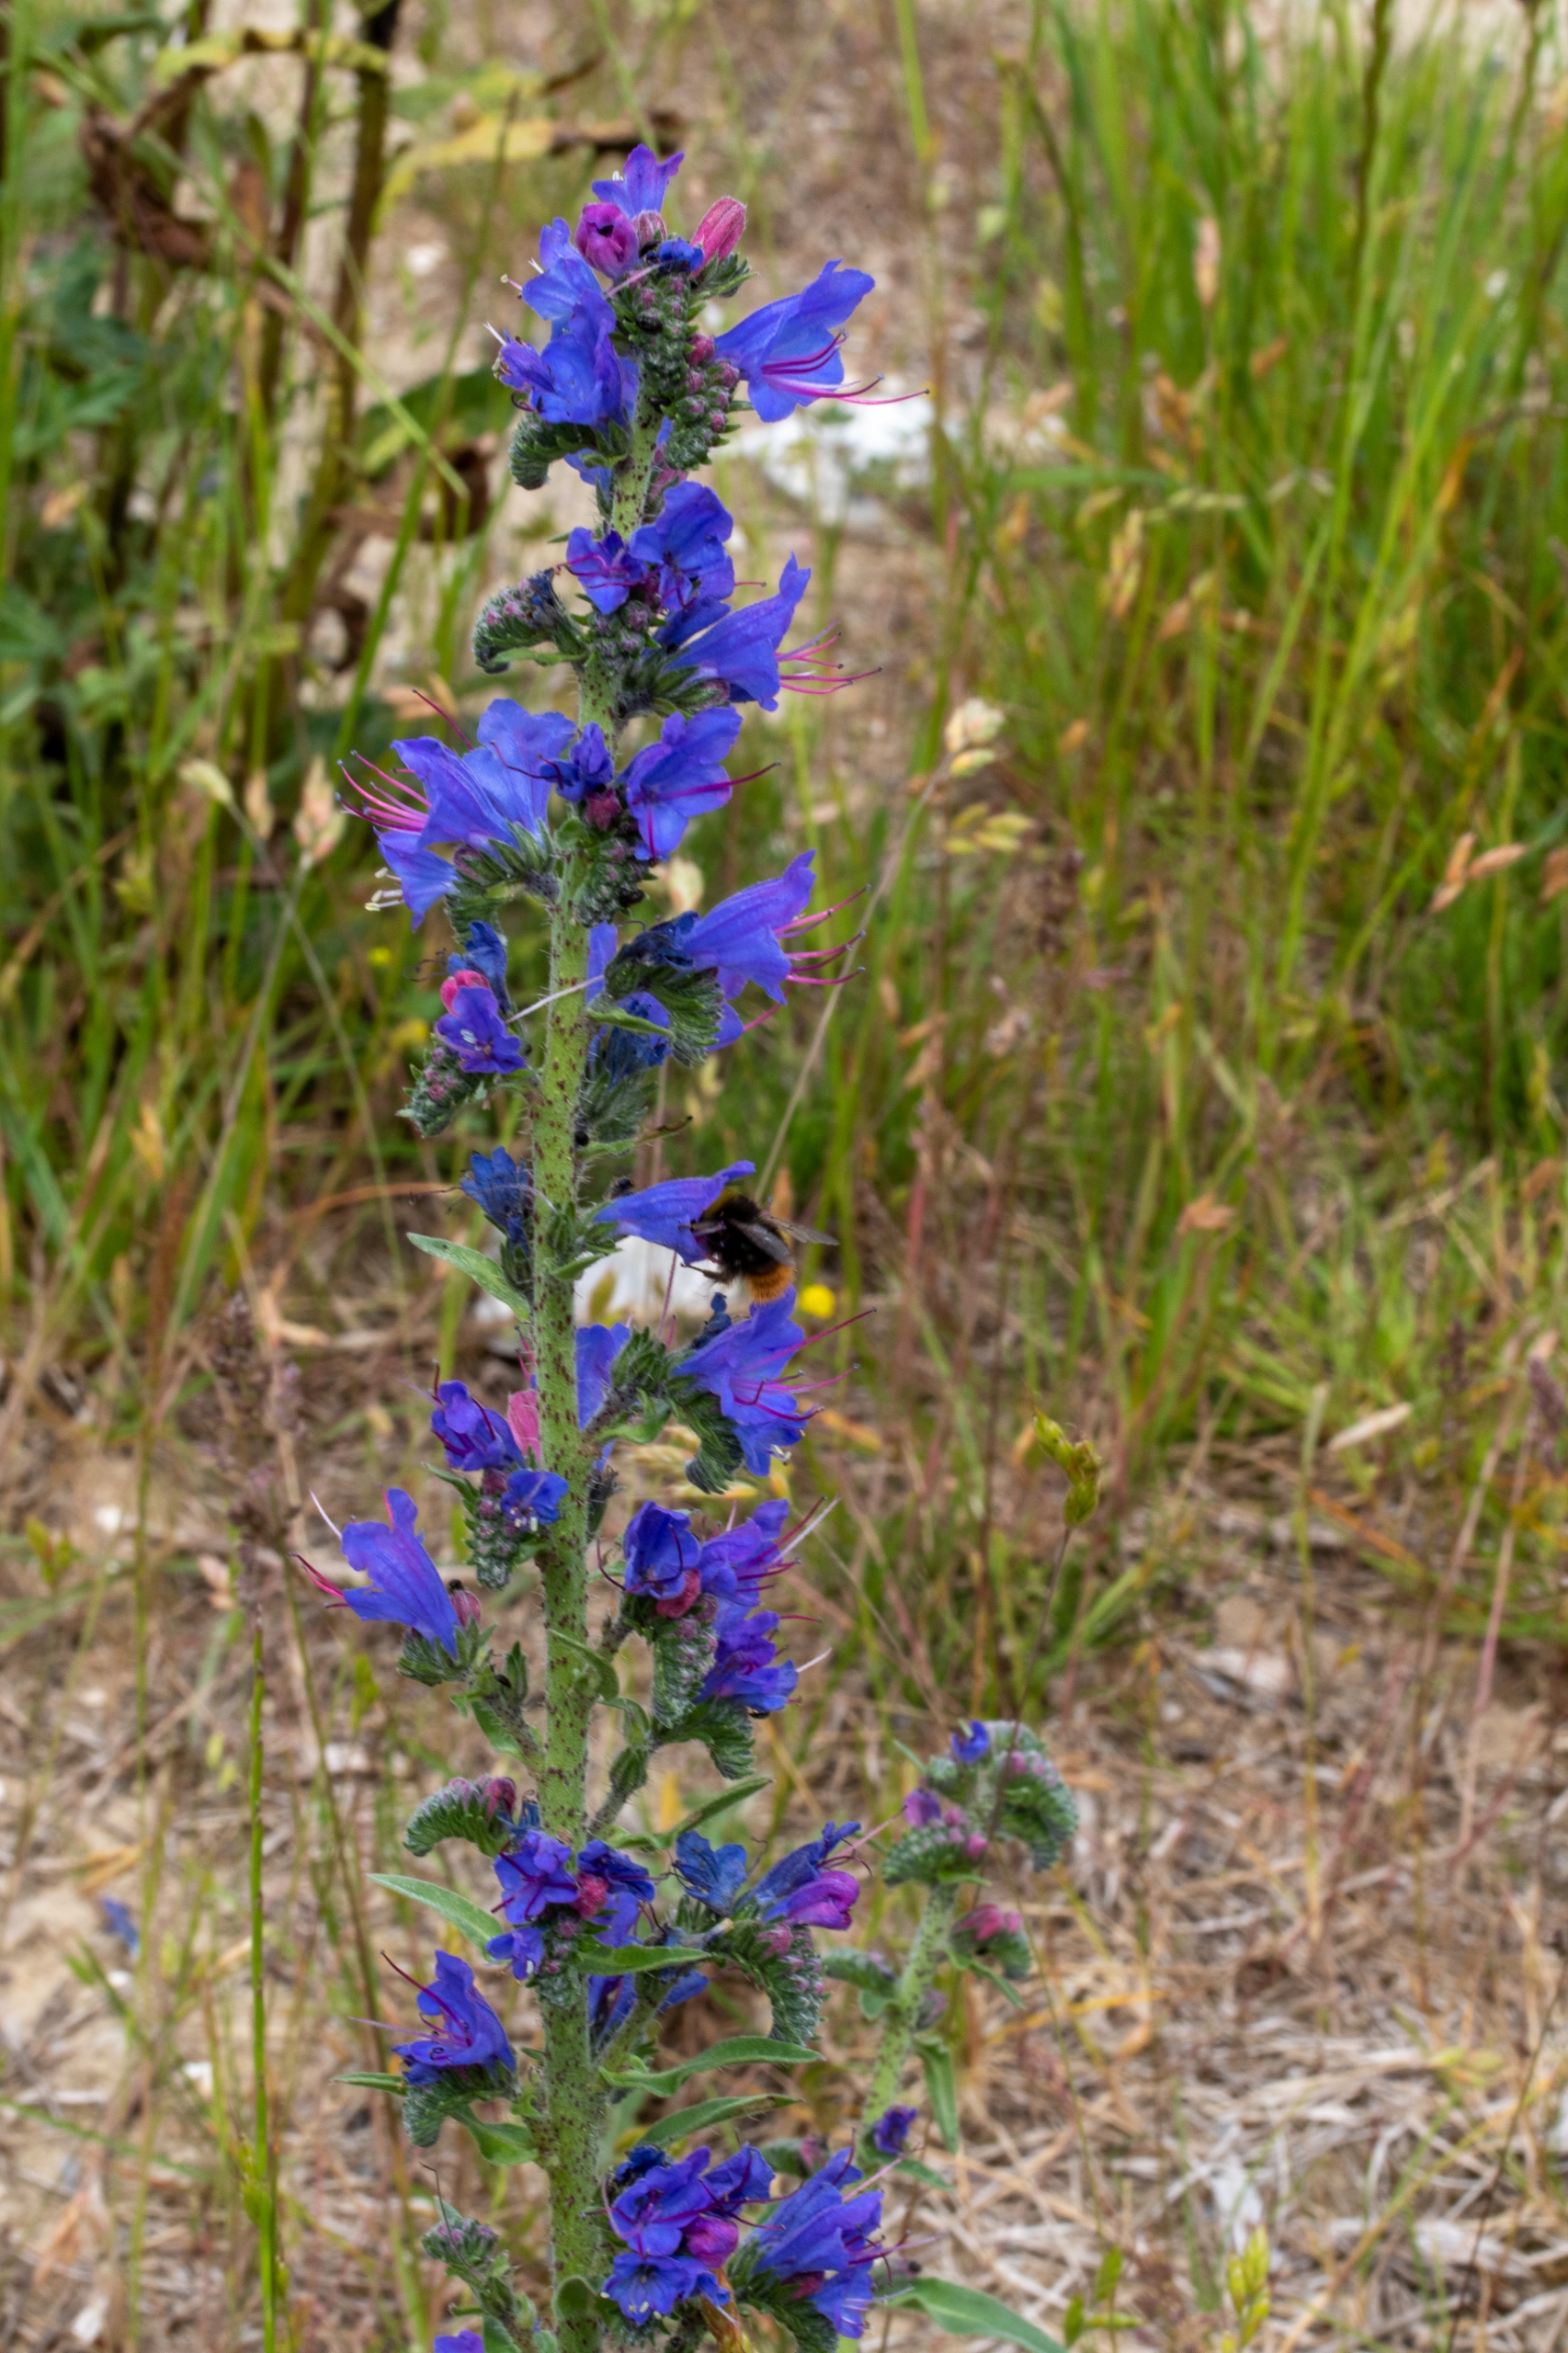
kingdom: Plantae
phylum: Tracheophyta
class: Magnoliopsida
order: Boraginales
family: Boraginaceae
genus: Echium
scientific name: Echium vulgare
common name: Slangehoved
